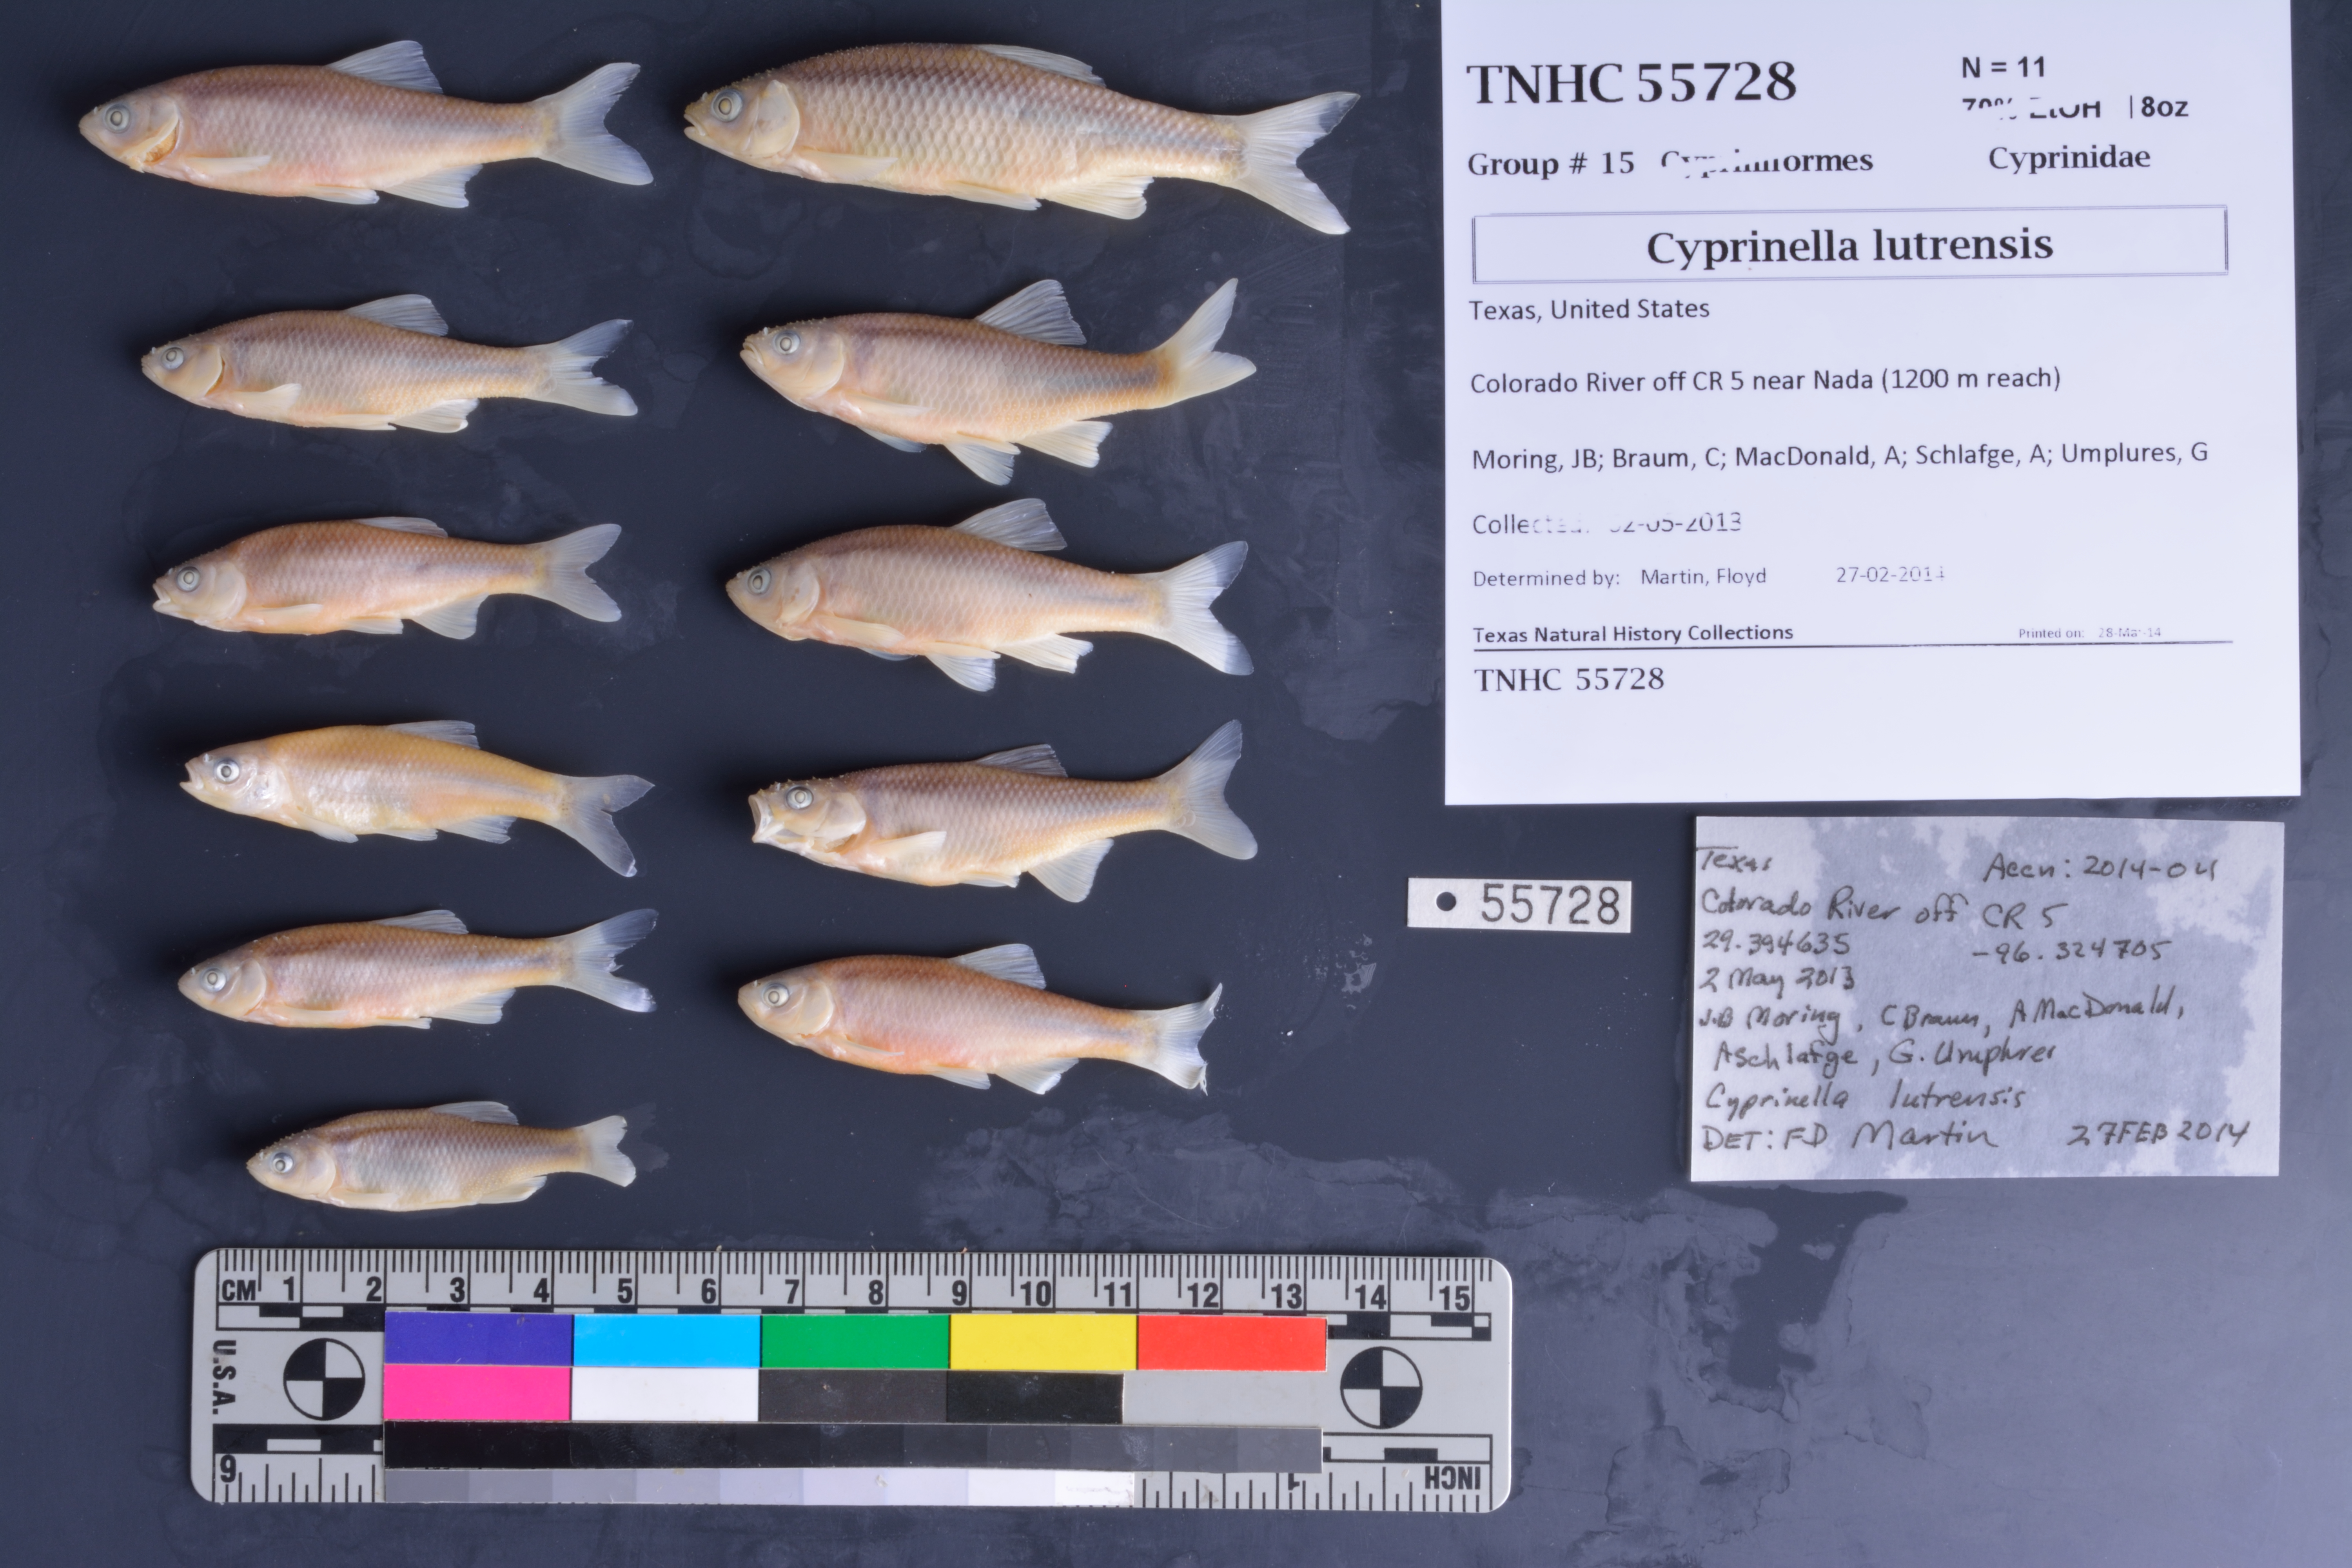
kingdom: Animalia
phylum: Chordata
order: Cypriniformes
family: Cyprinidae
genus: Cyprinella
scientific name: Cyprinella lutrensis
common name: Red shiner
